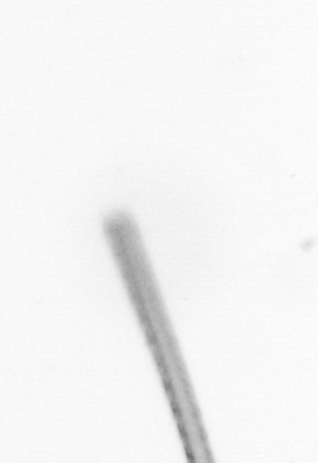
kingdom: Chromista
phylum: Ochrophyta
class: Bacillariophyceae
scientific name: Bacillariophyceae
